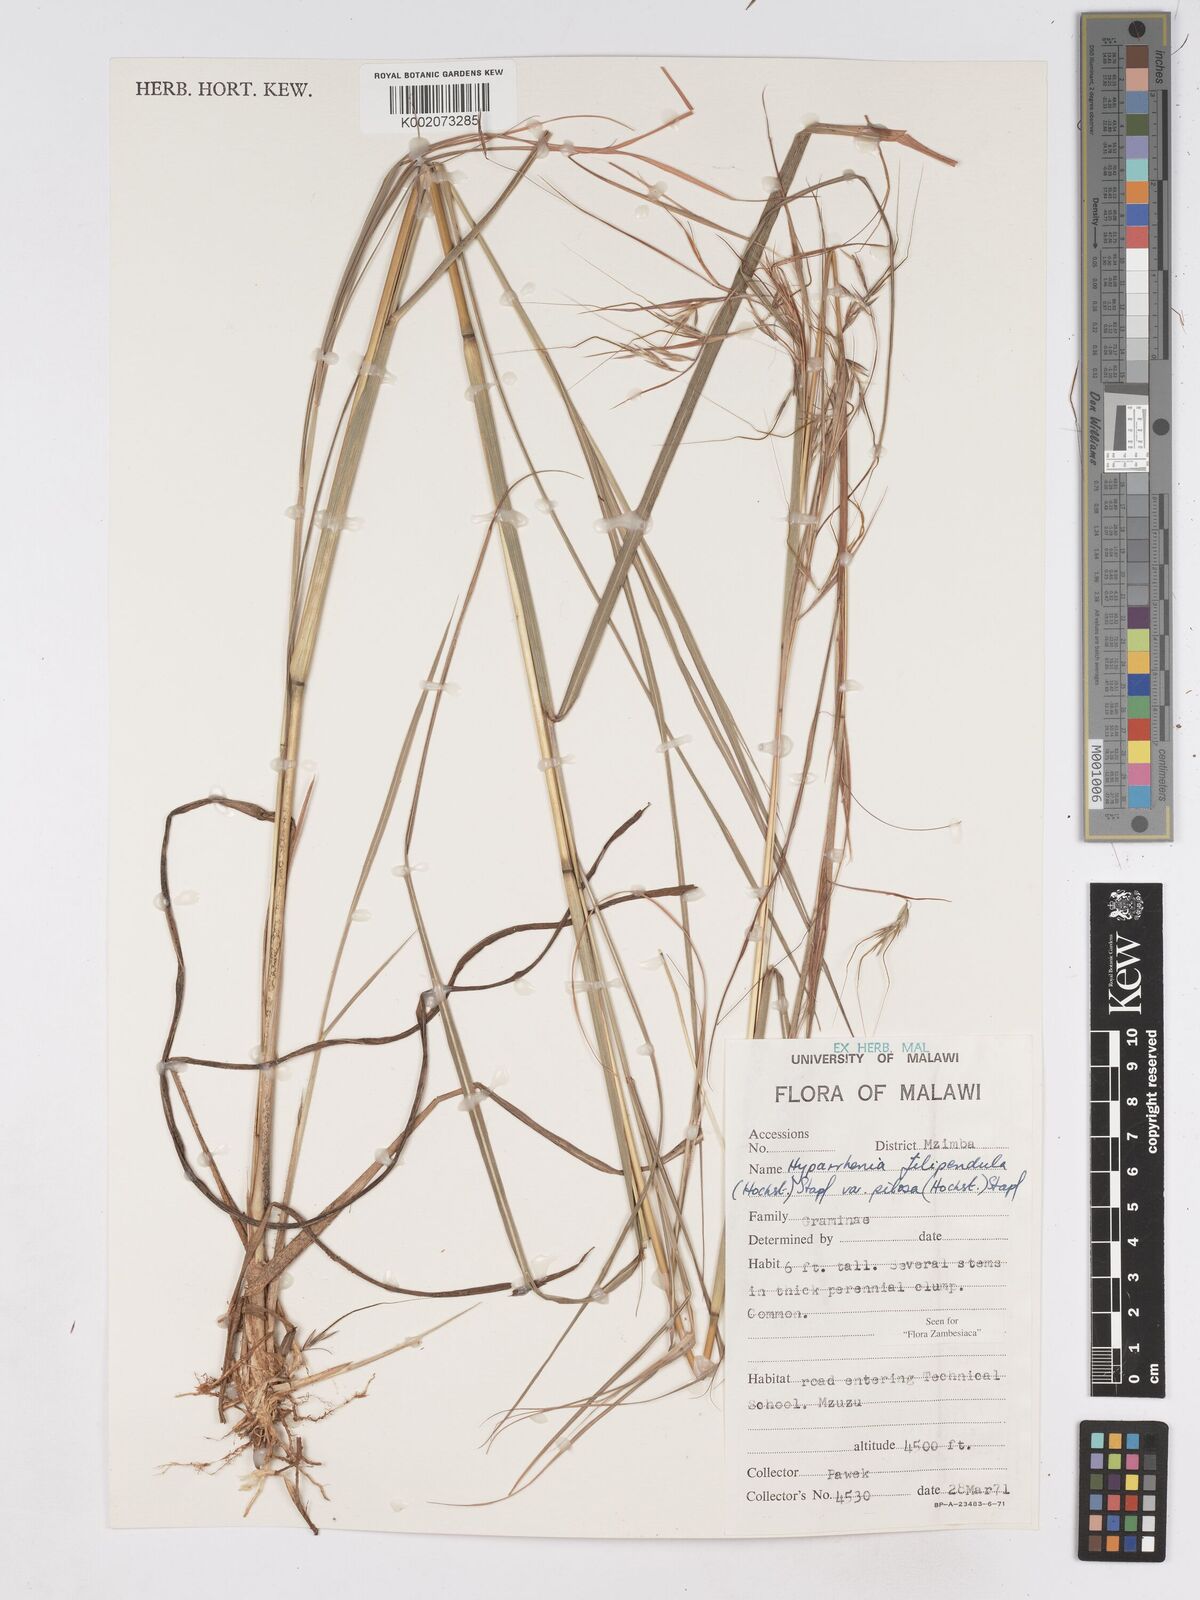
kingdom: Plantae
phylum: Tracheophyta
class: Liliopsida
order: Poales
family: Poaceae
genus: Hyparrhenia
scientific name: Hyparrhenia filipendula
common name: Tambookie grass
